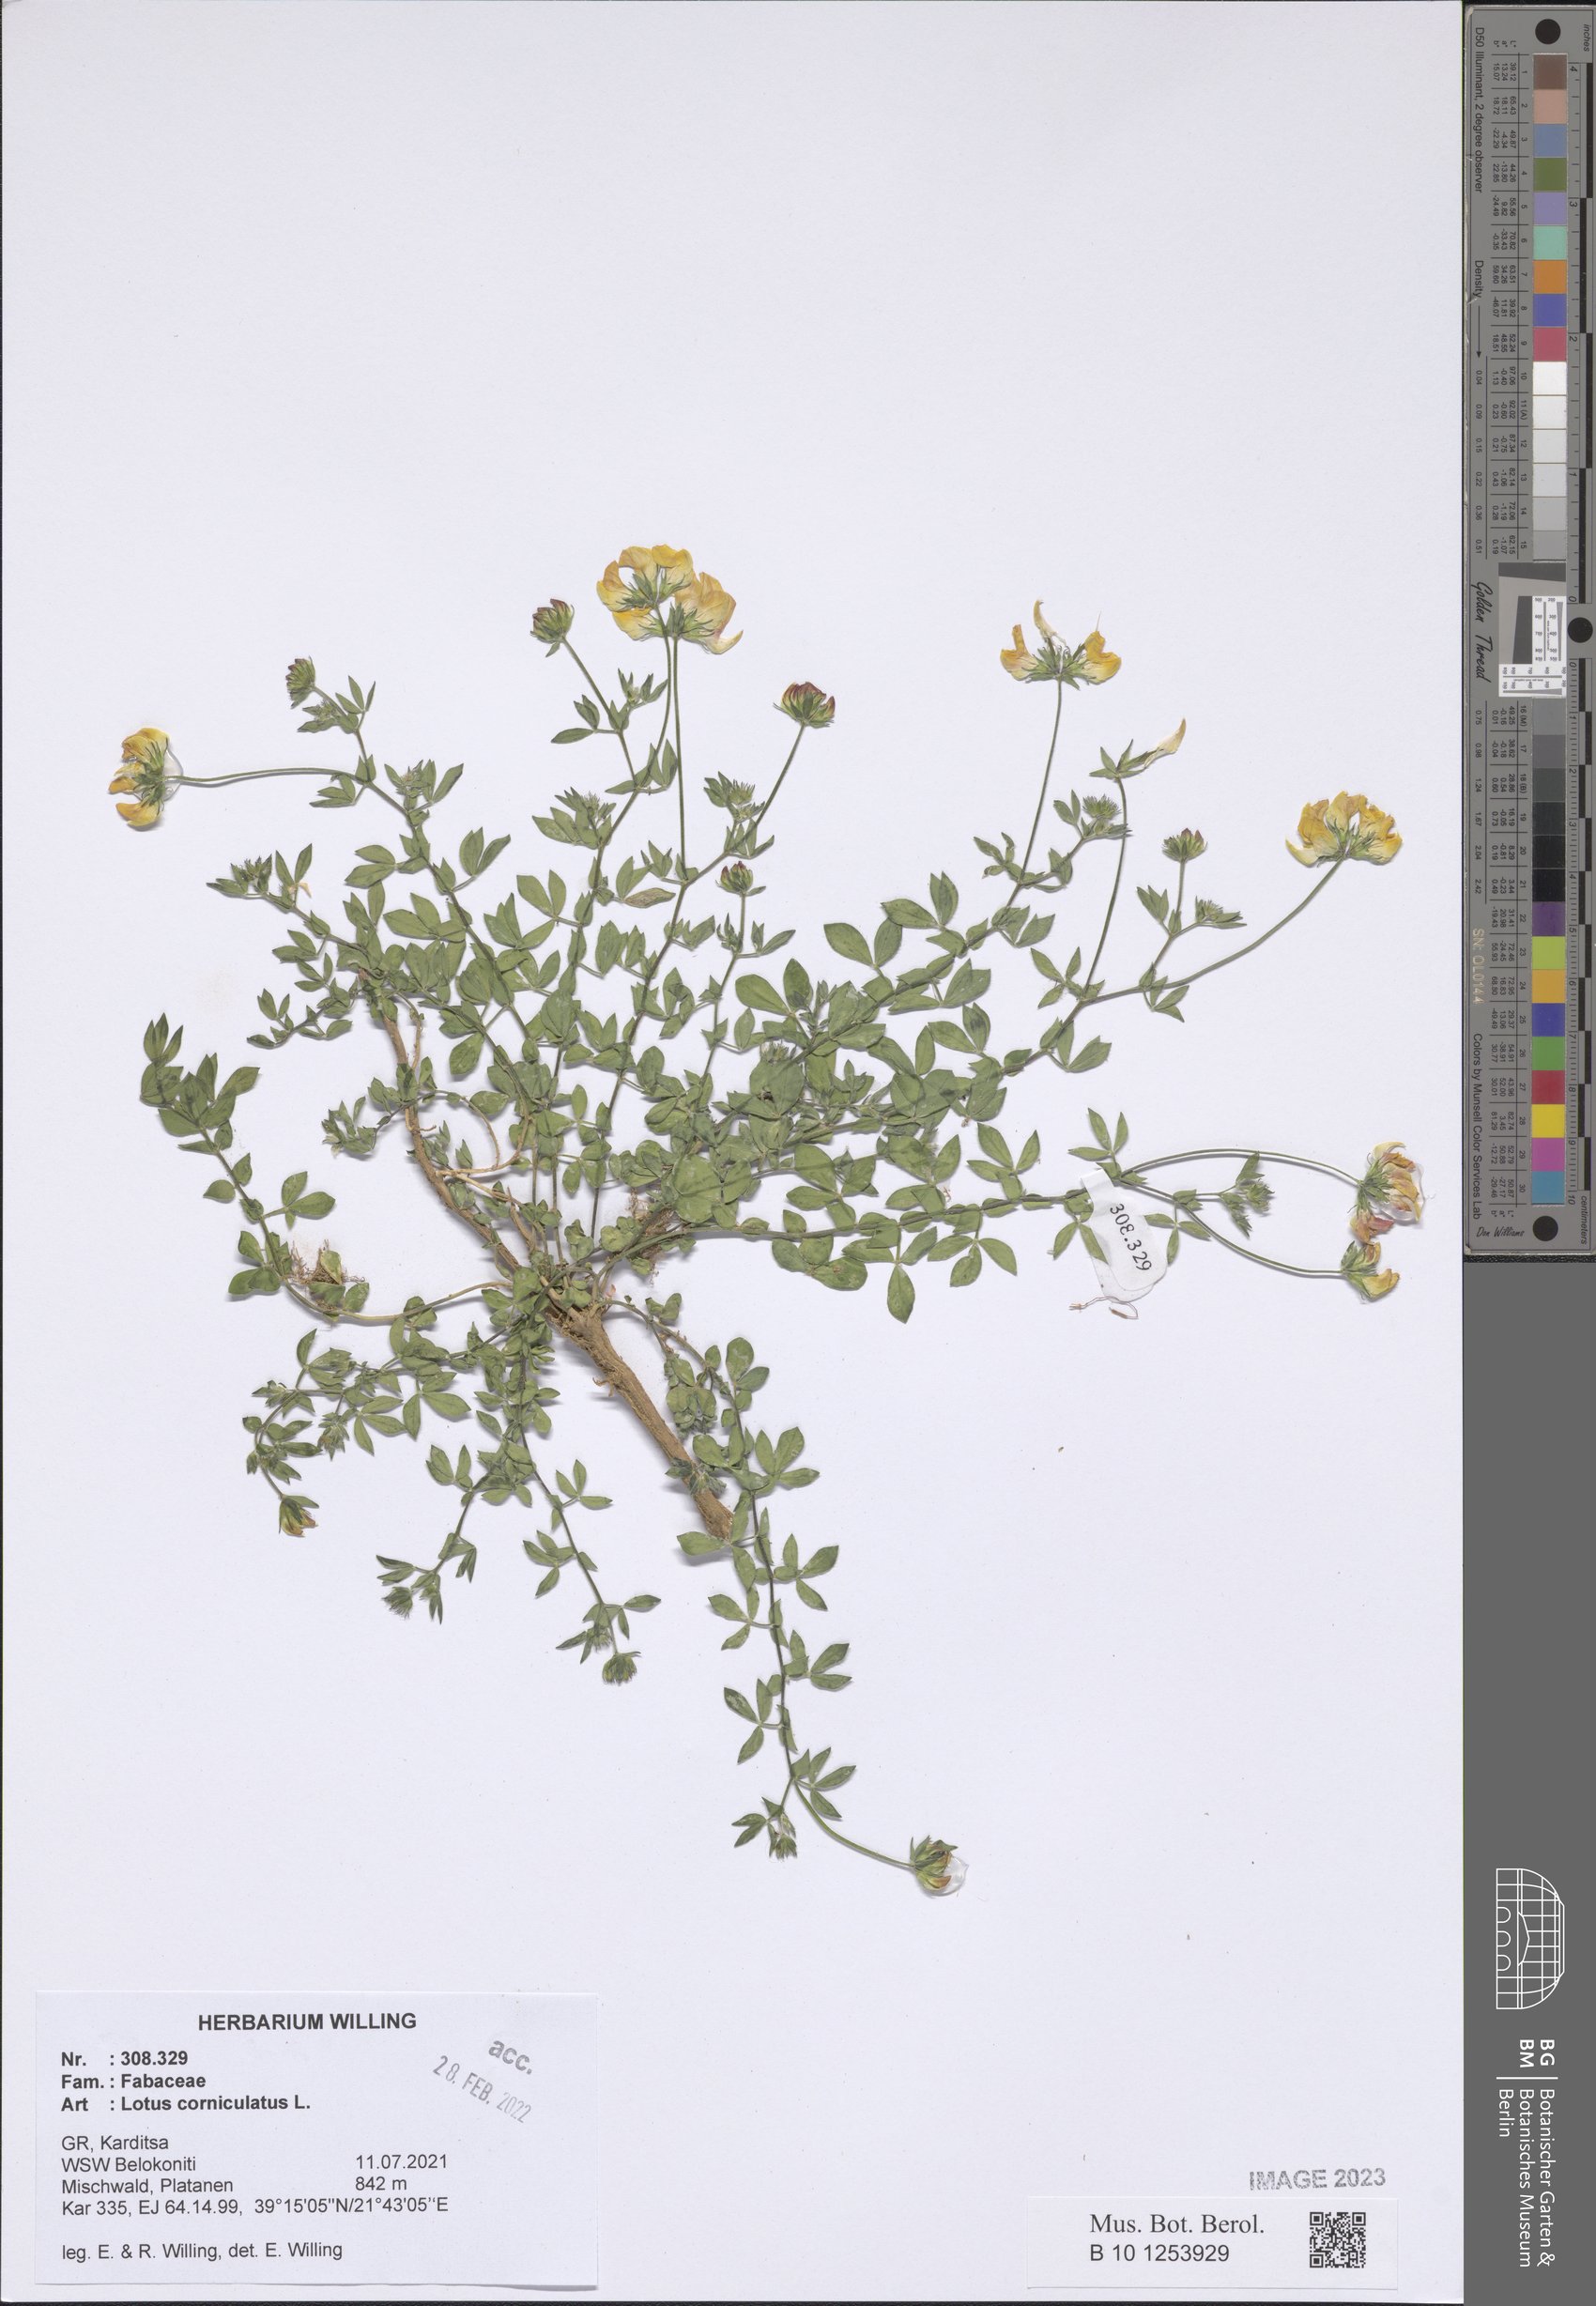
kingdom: Plantae
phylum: Tracheophyta
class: Magnoliopsida
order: Fabales
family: Fabaceae
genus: Lotus
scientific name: Lotus corniculatus
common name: Common bird's-foot-trefoil
